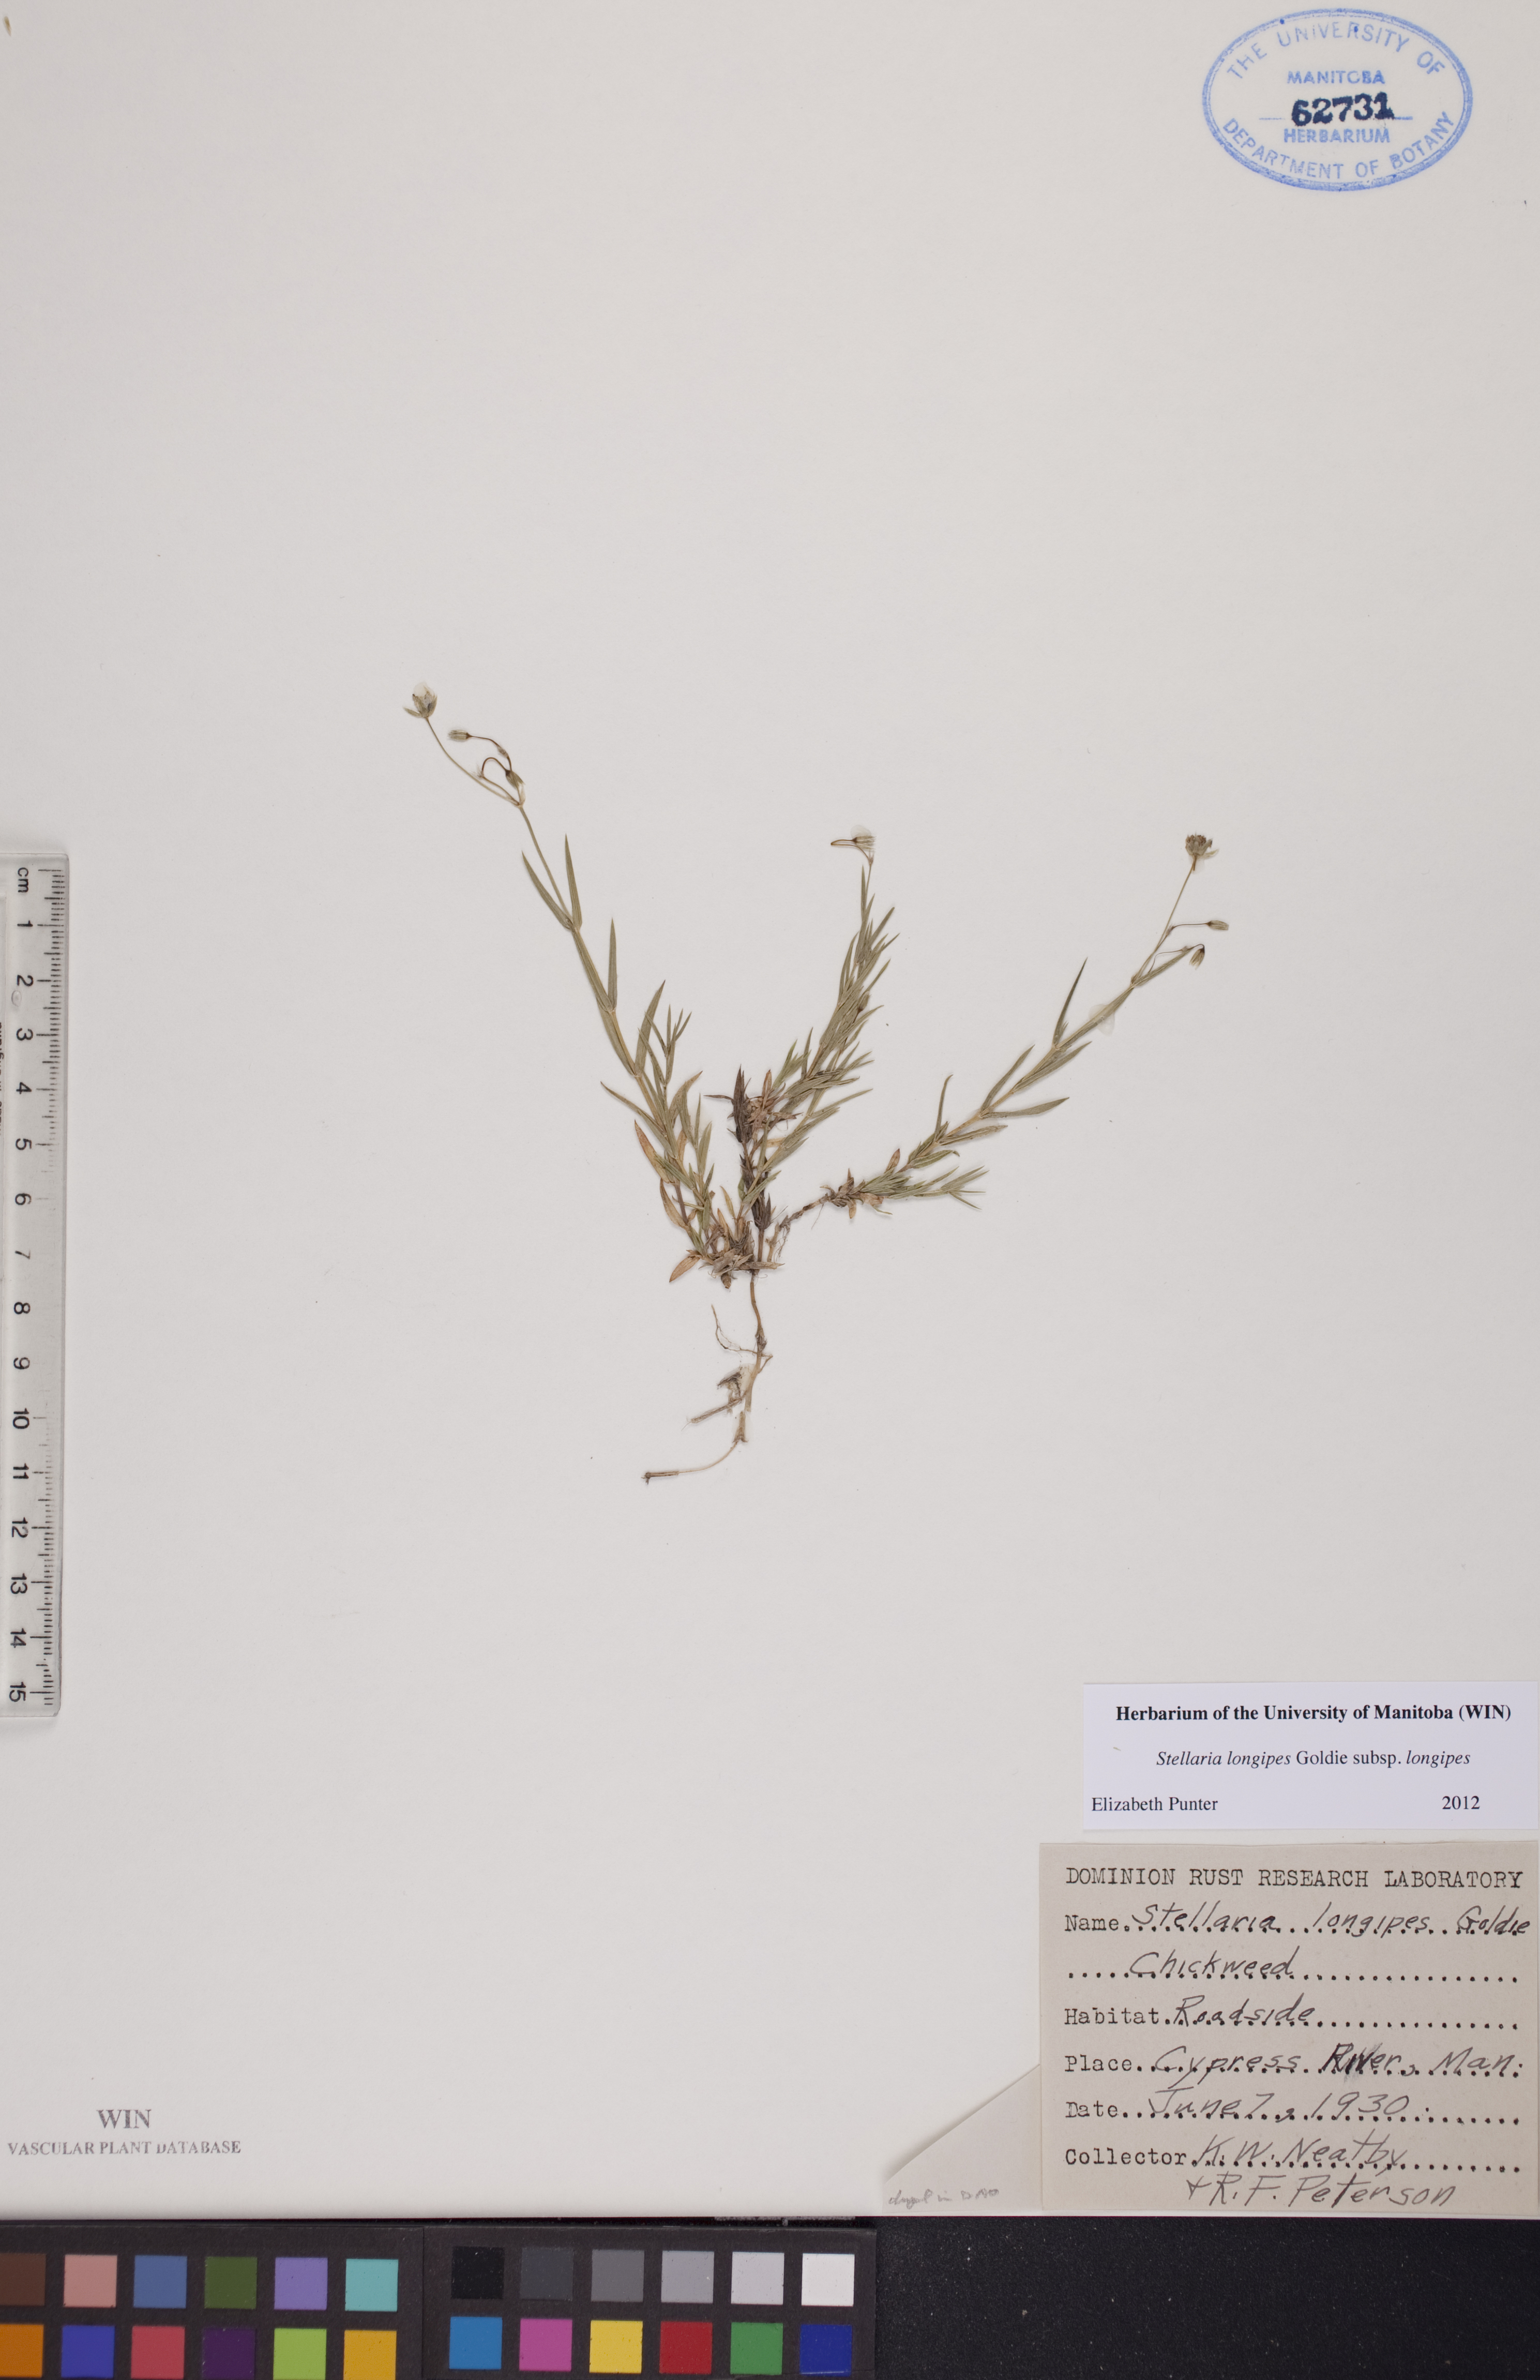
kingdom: Plantae
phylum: Tracheophyta
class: Magnoliopsida
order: Caryophyllales
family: Caryophyllaceae
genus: Stellaria
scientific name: Stellaria longipes
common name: Goldie's starwort
